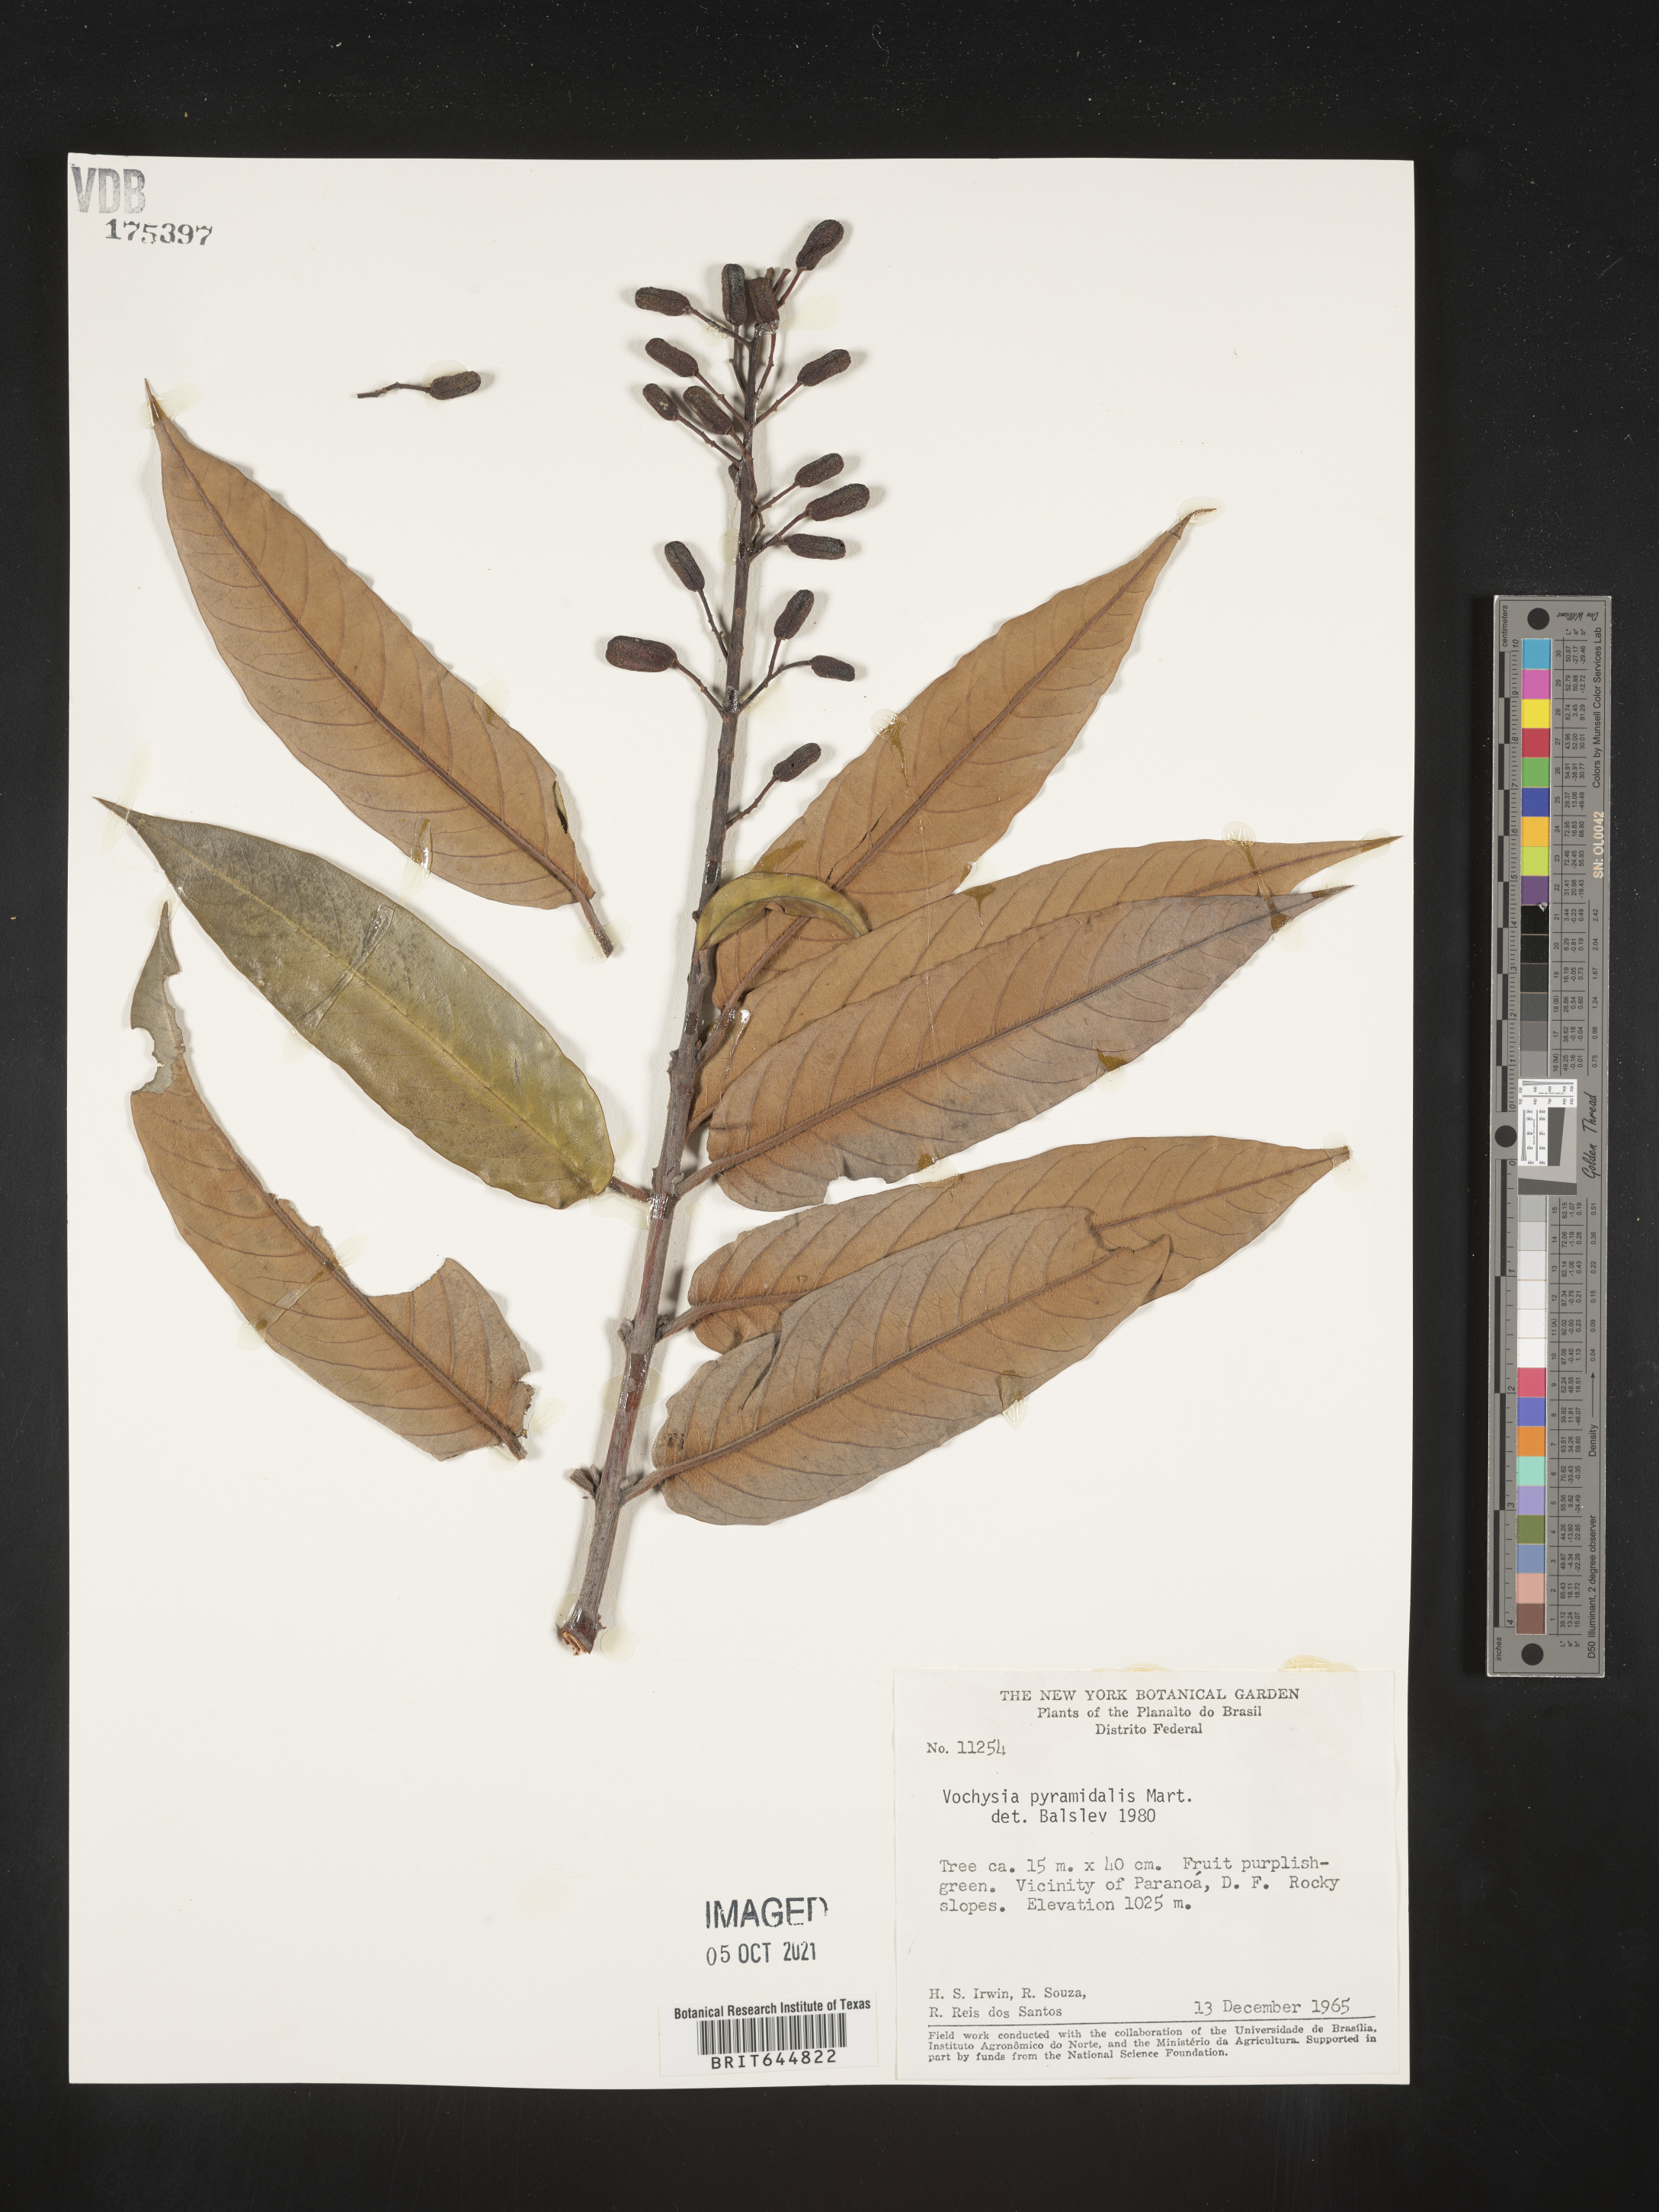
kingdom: Plantae
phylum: Tracheophyta
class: Magnoliopsida
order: Myrtales
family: Vochysiaceae
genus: Vochysia
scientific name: Vochysia
